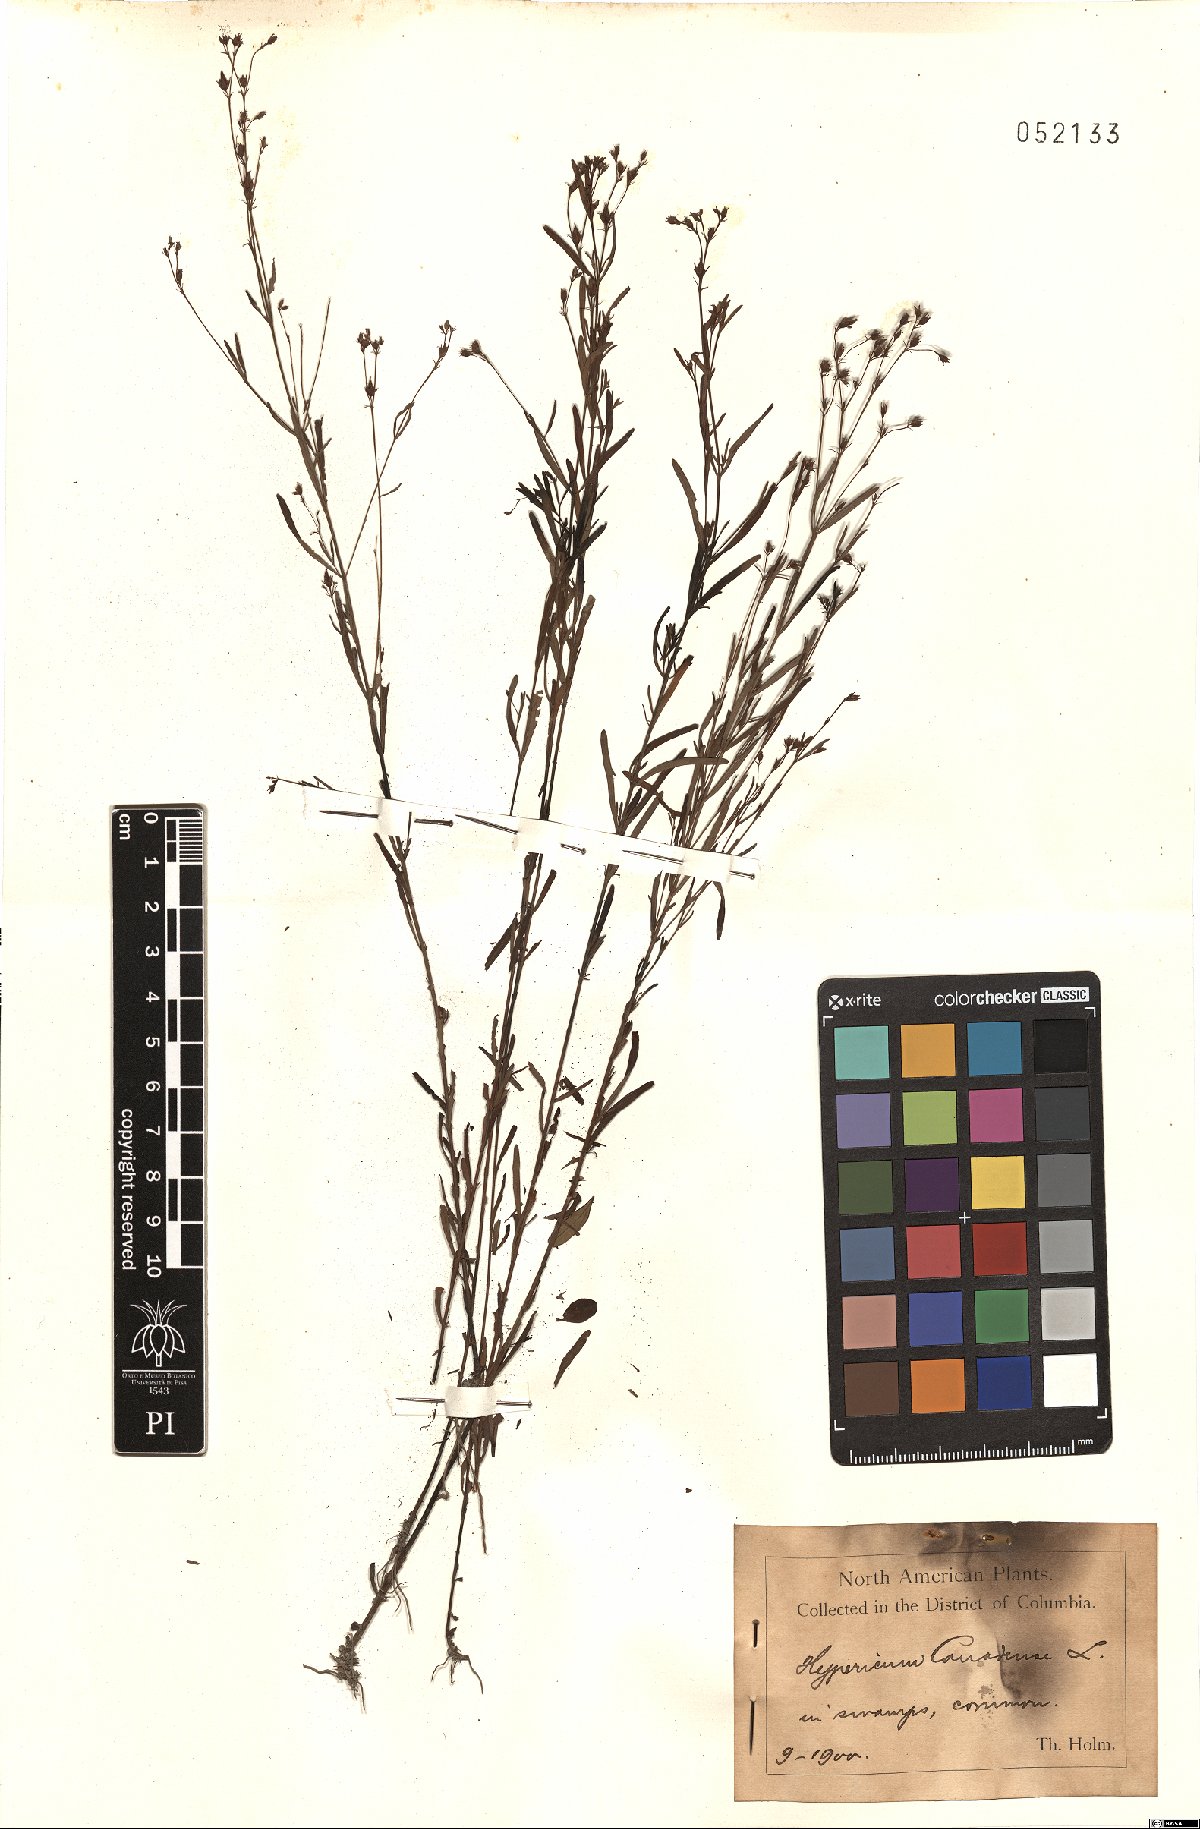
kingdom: Plantae
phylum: Tracheophyta
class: Magnoliopsida
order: Malpighiales
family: Hypericaceae
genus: Hypericum
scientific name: Hypericum canadense
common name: Irish st. john's-wort
